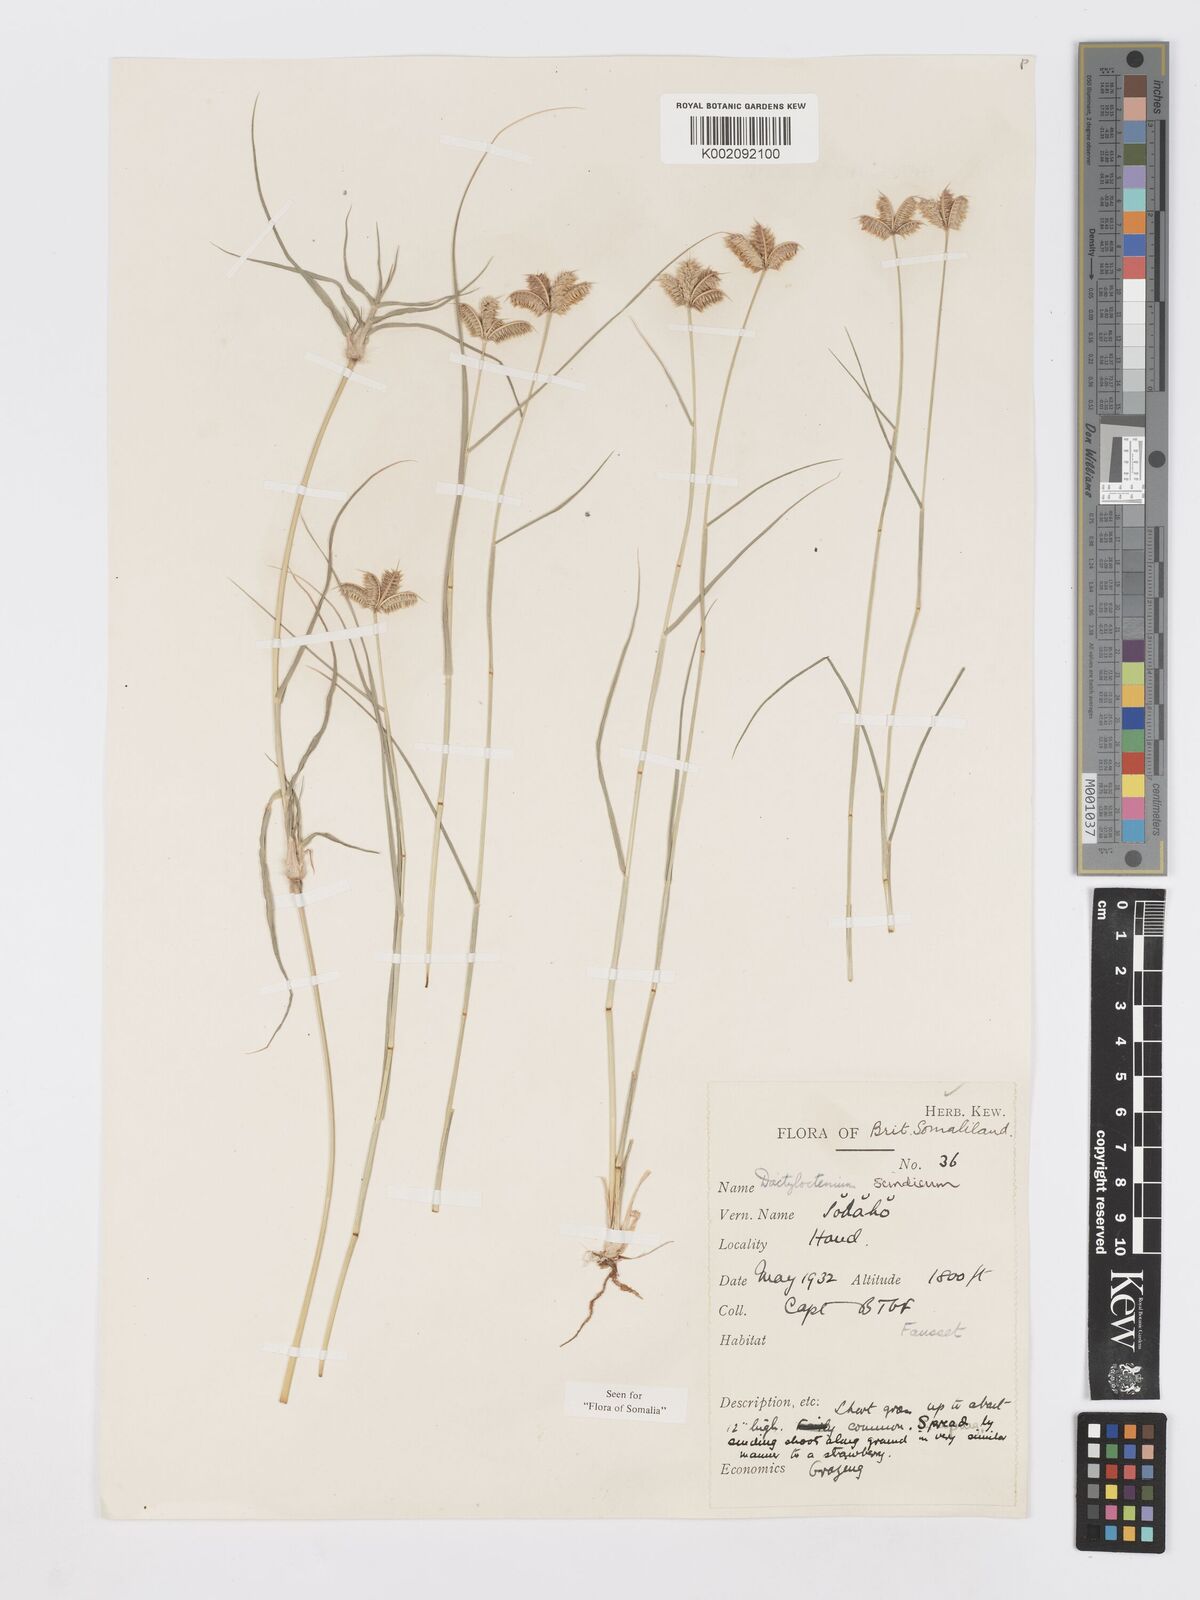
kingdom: Plantae
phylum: Tracheophyta
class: Liliopsida
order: Poales
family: Poaceae
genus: Dactyloctenium
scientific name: Dactyloctenium scindicum
